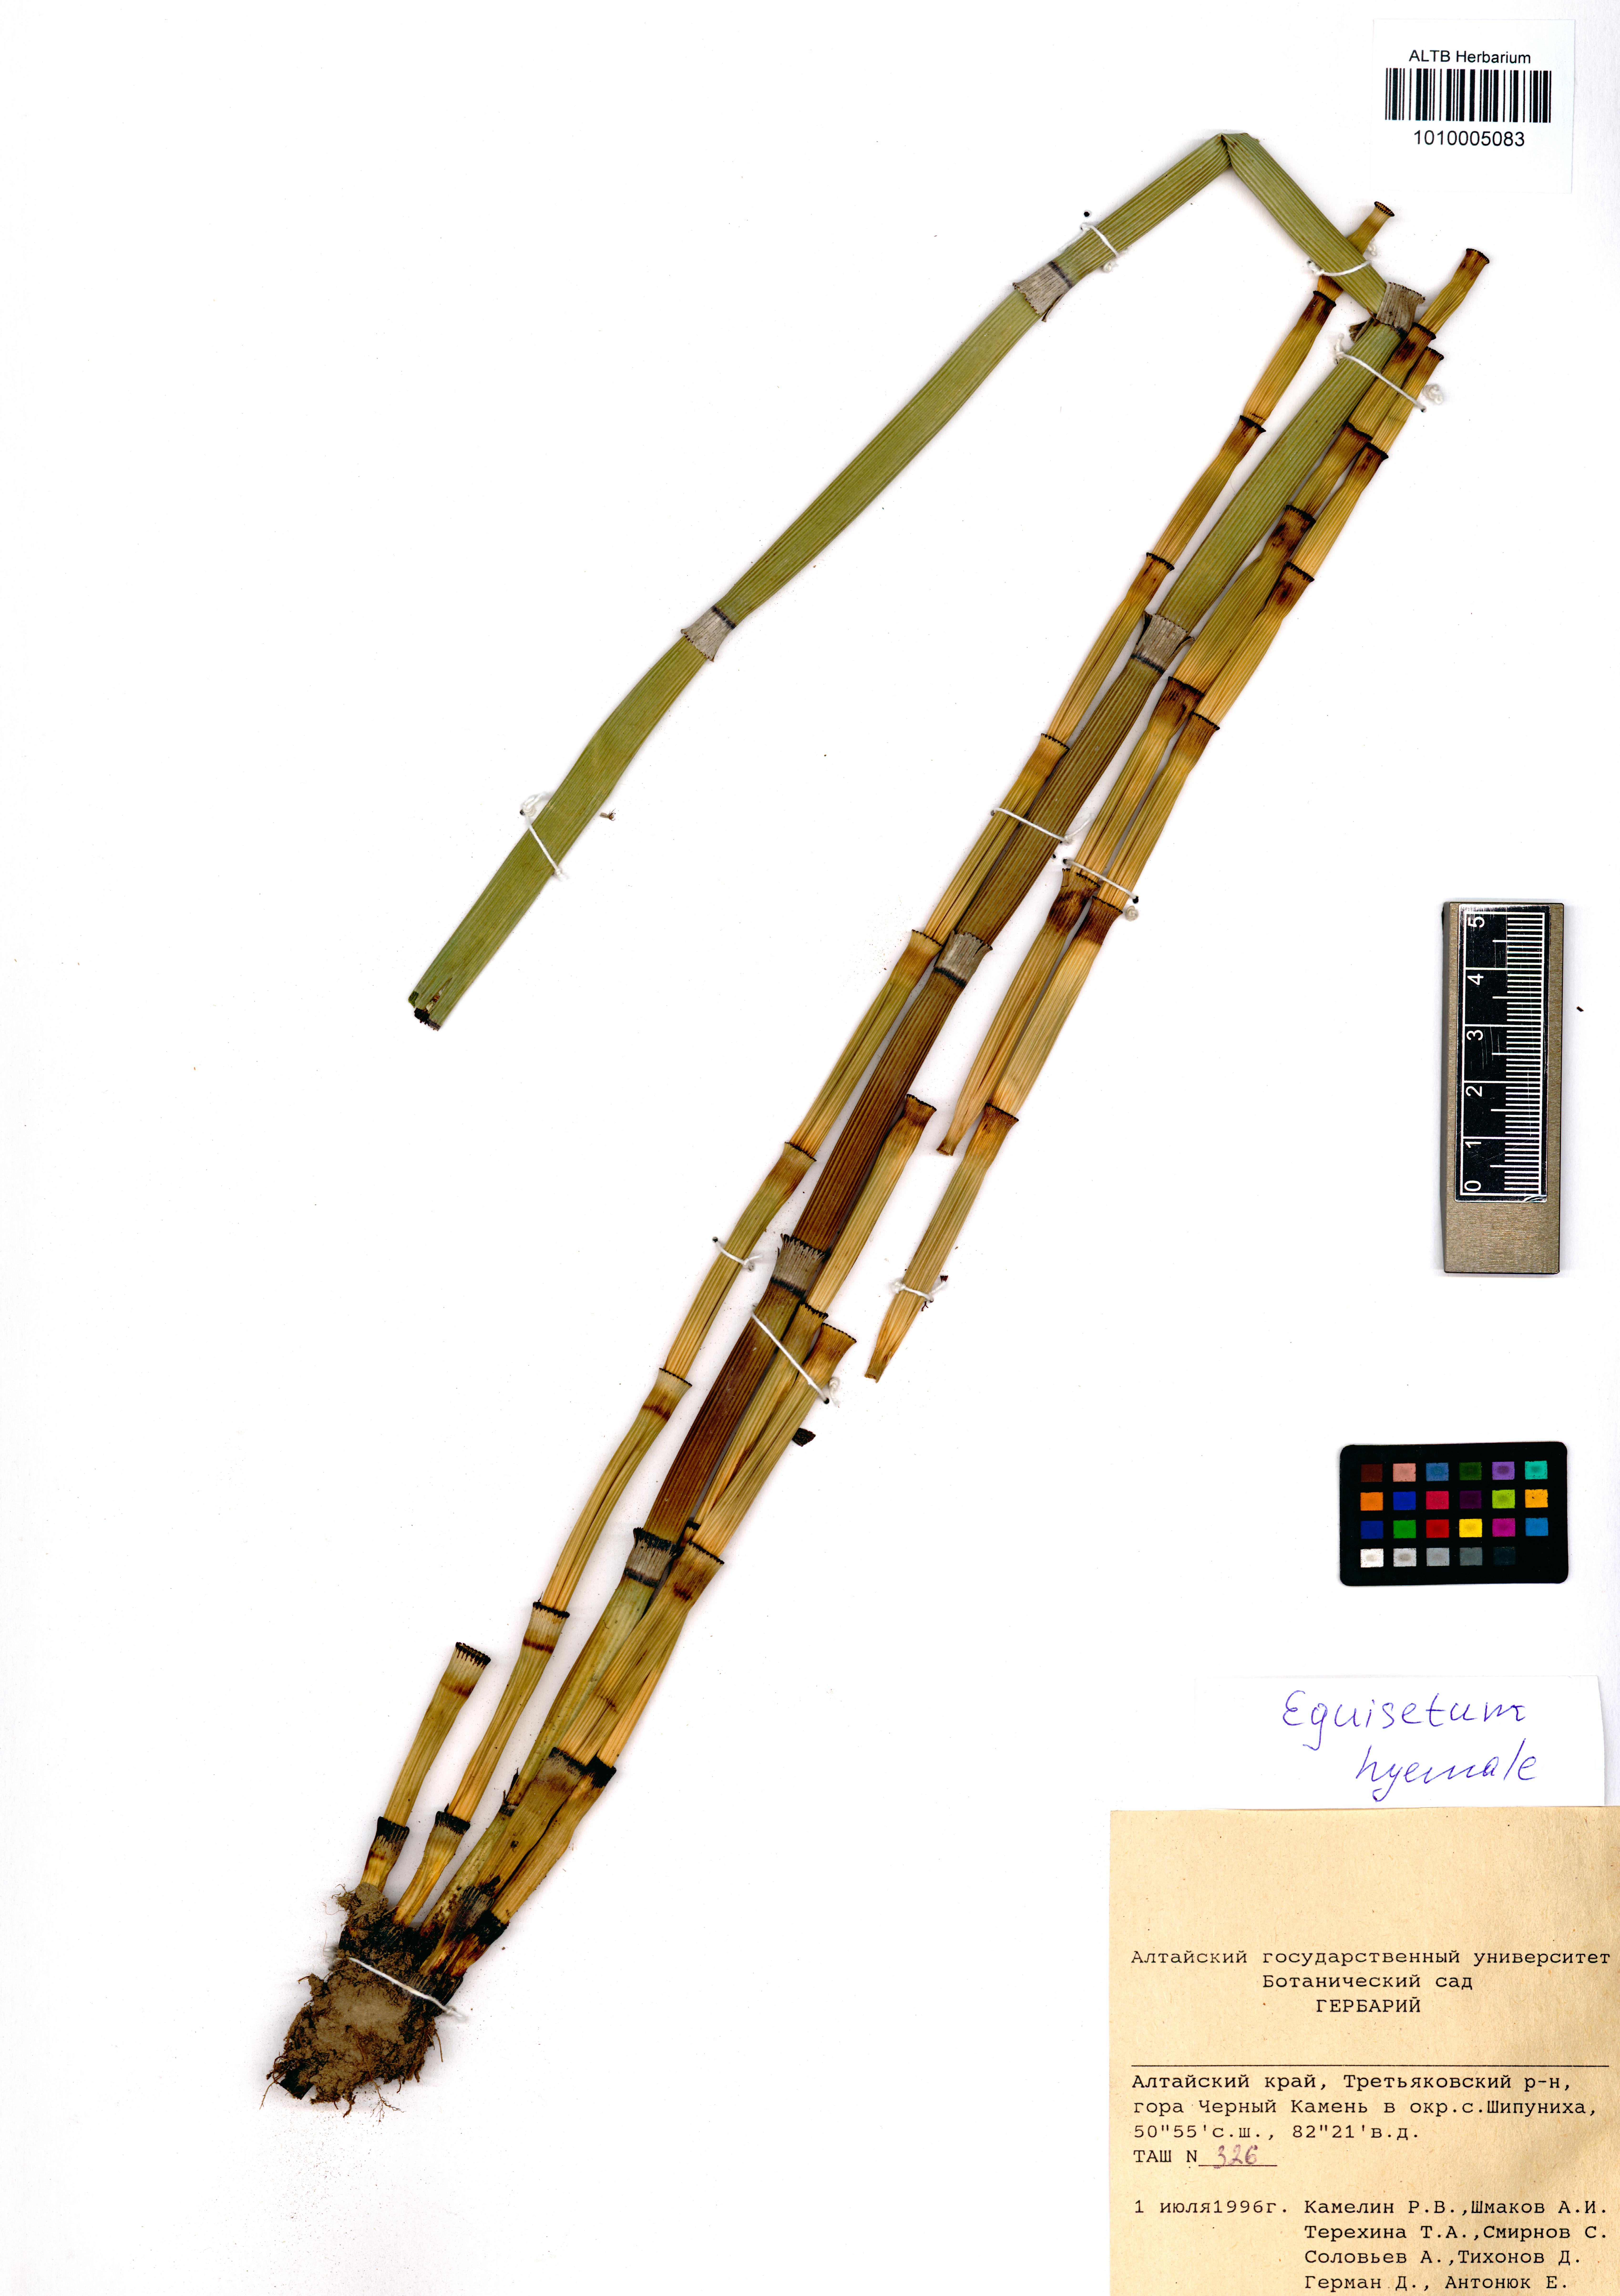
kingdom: Plantae
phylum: Tracheophyta
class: Polypodiopsida
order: Equisetales
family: Equisetaceae
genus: Equisetum
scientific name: Equisetum hyemale
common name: Rough horsetail
